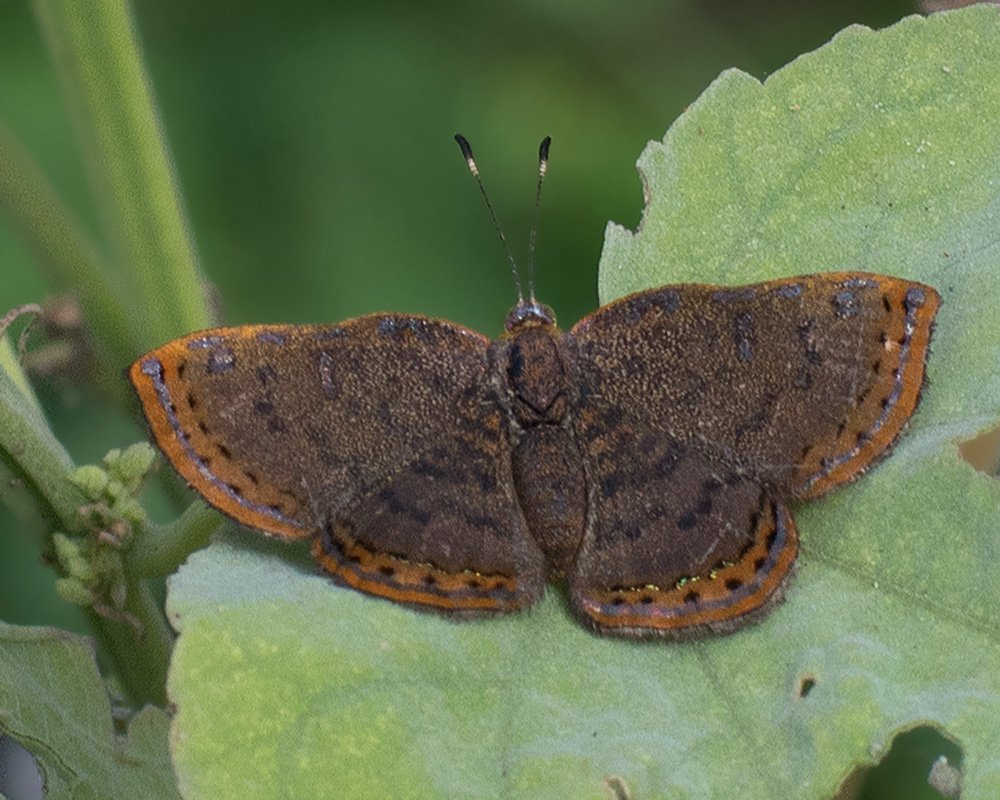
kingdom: Animalia
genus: Caria
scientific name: Caria ino
